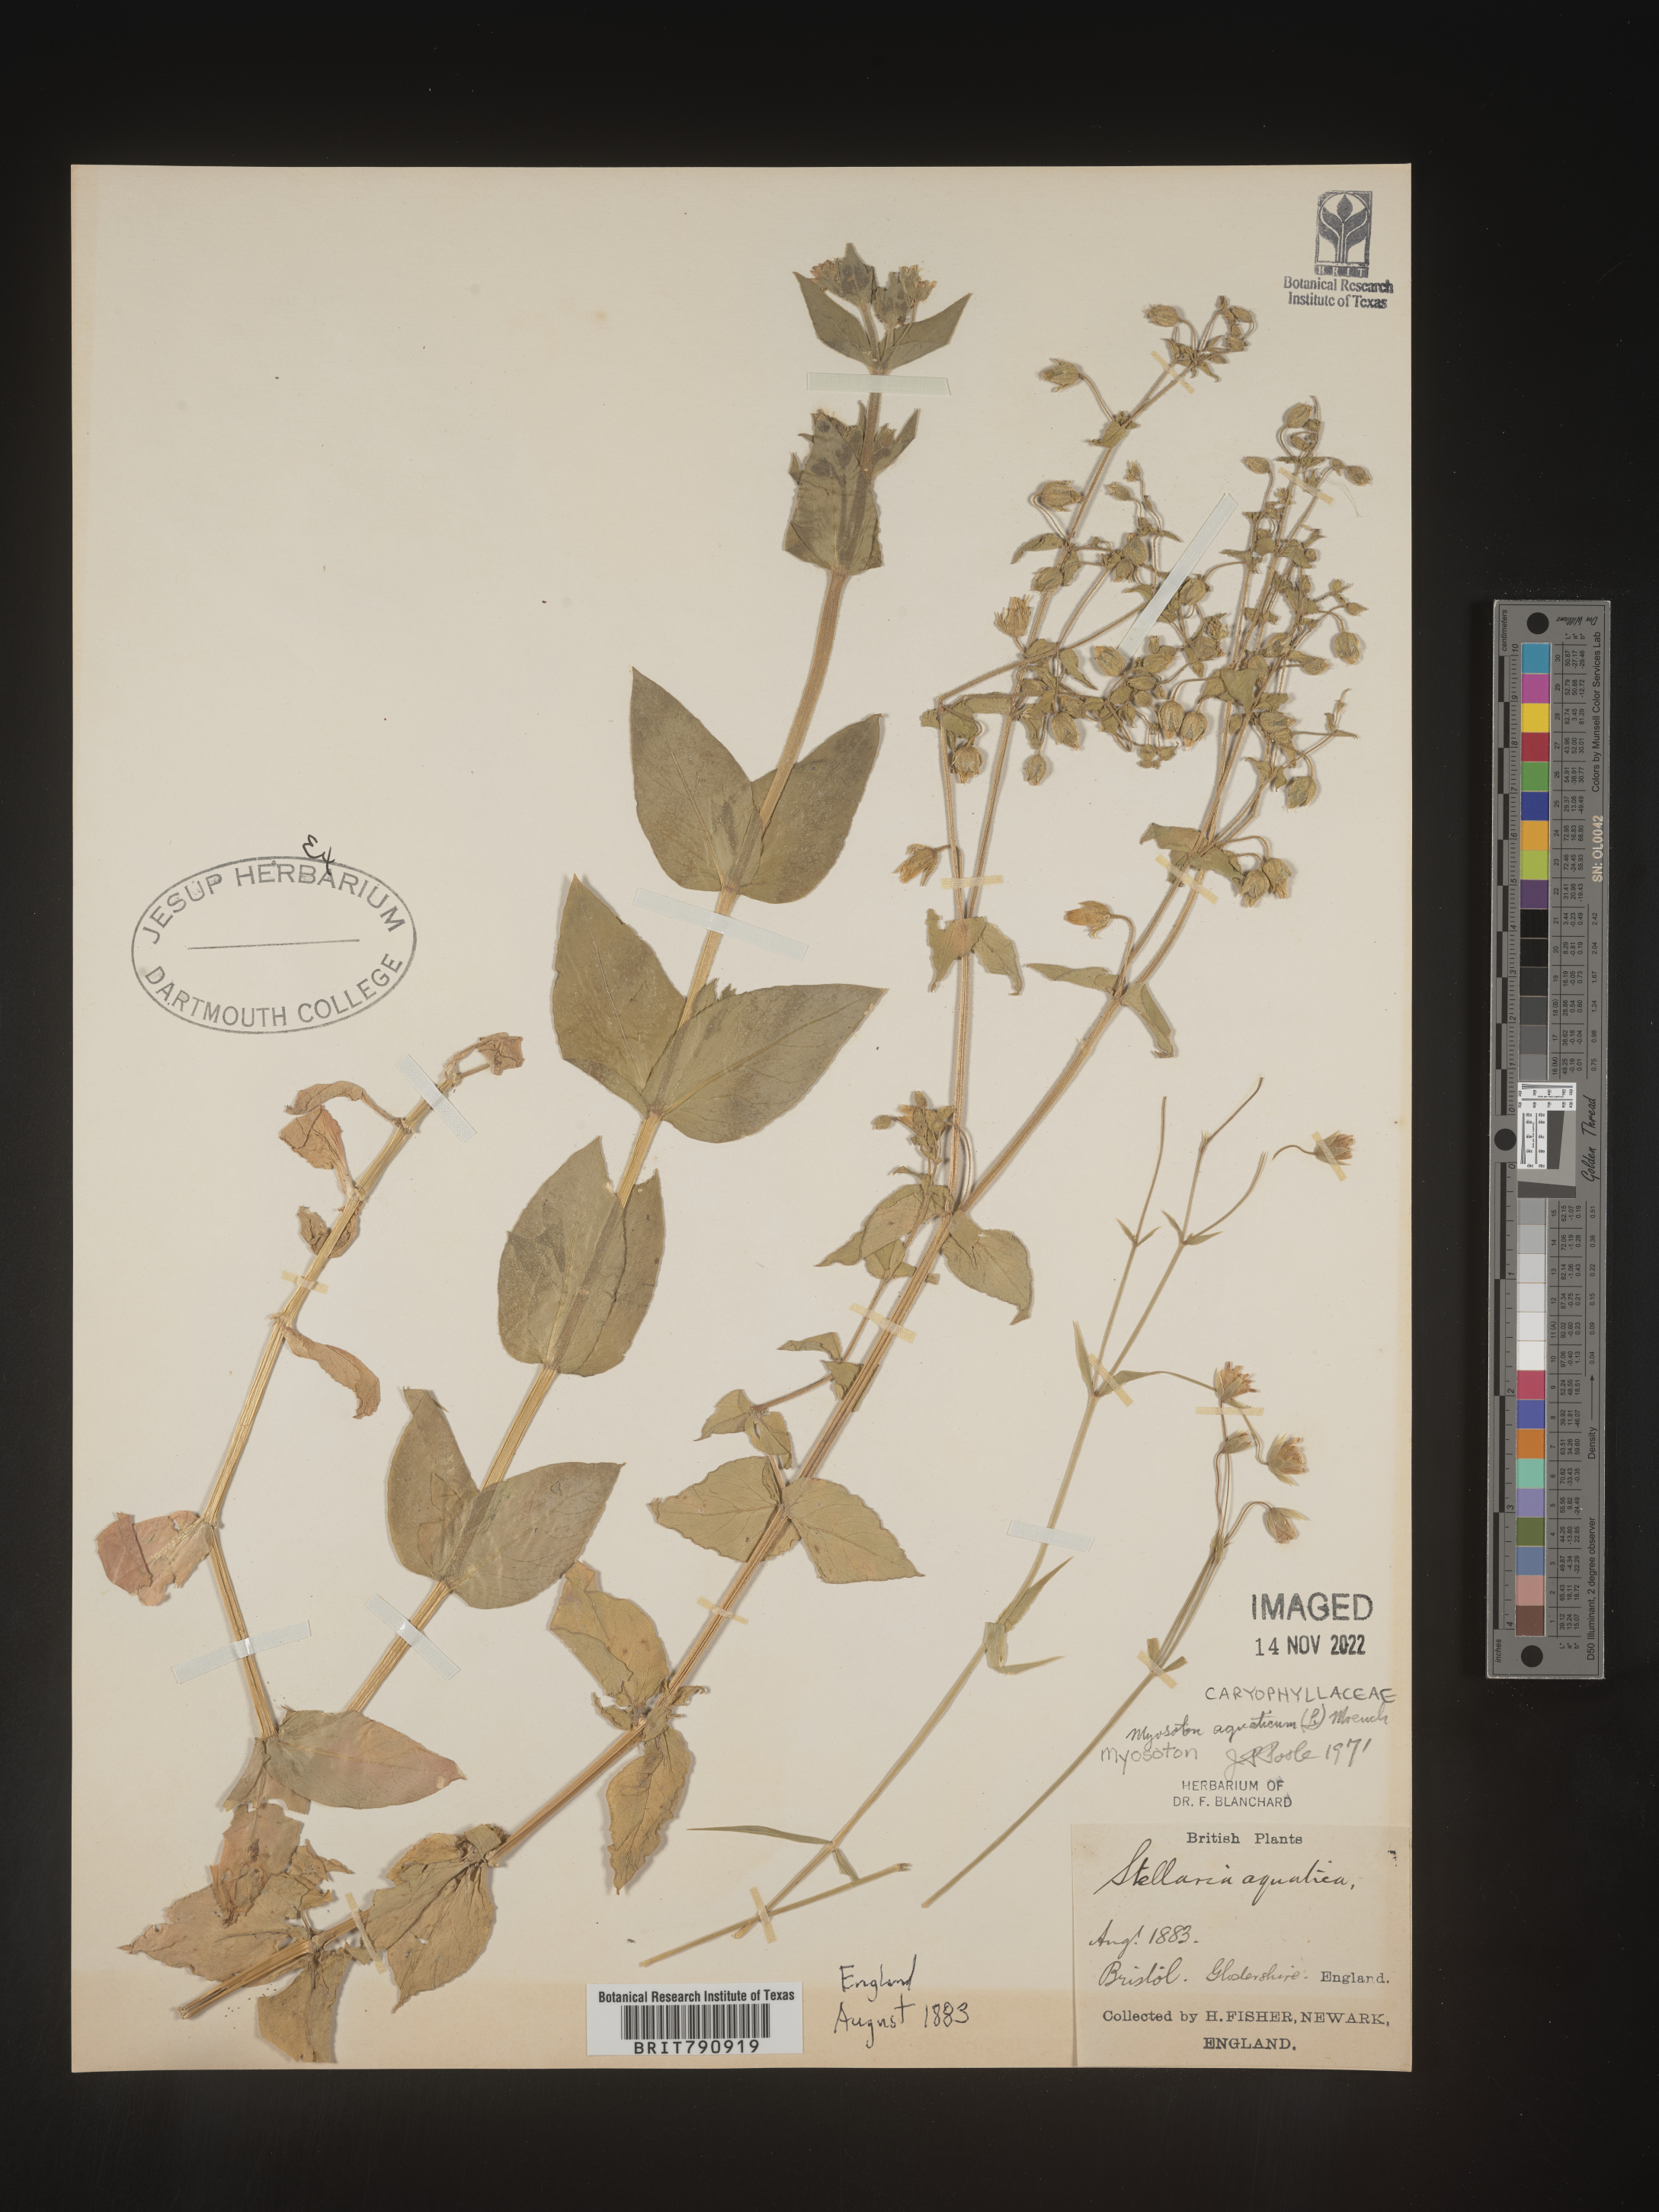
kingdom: Plantae
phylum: Tracheophyta
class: Magnoliopsida
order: Caryophyllales
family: Caryophyllaceae
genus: Stellaria
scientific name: Stellaria
